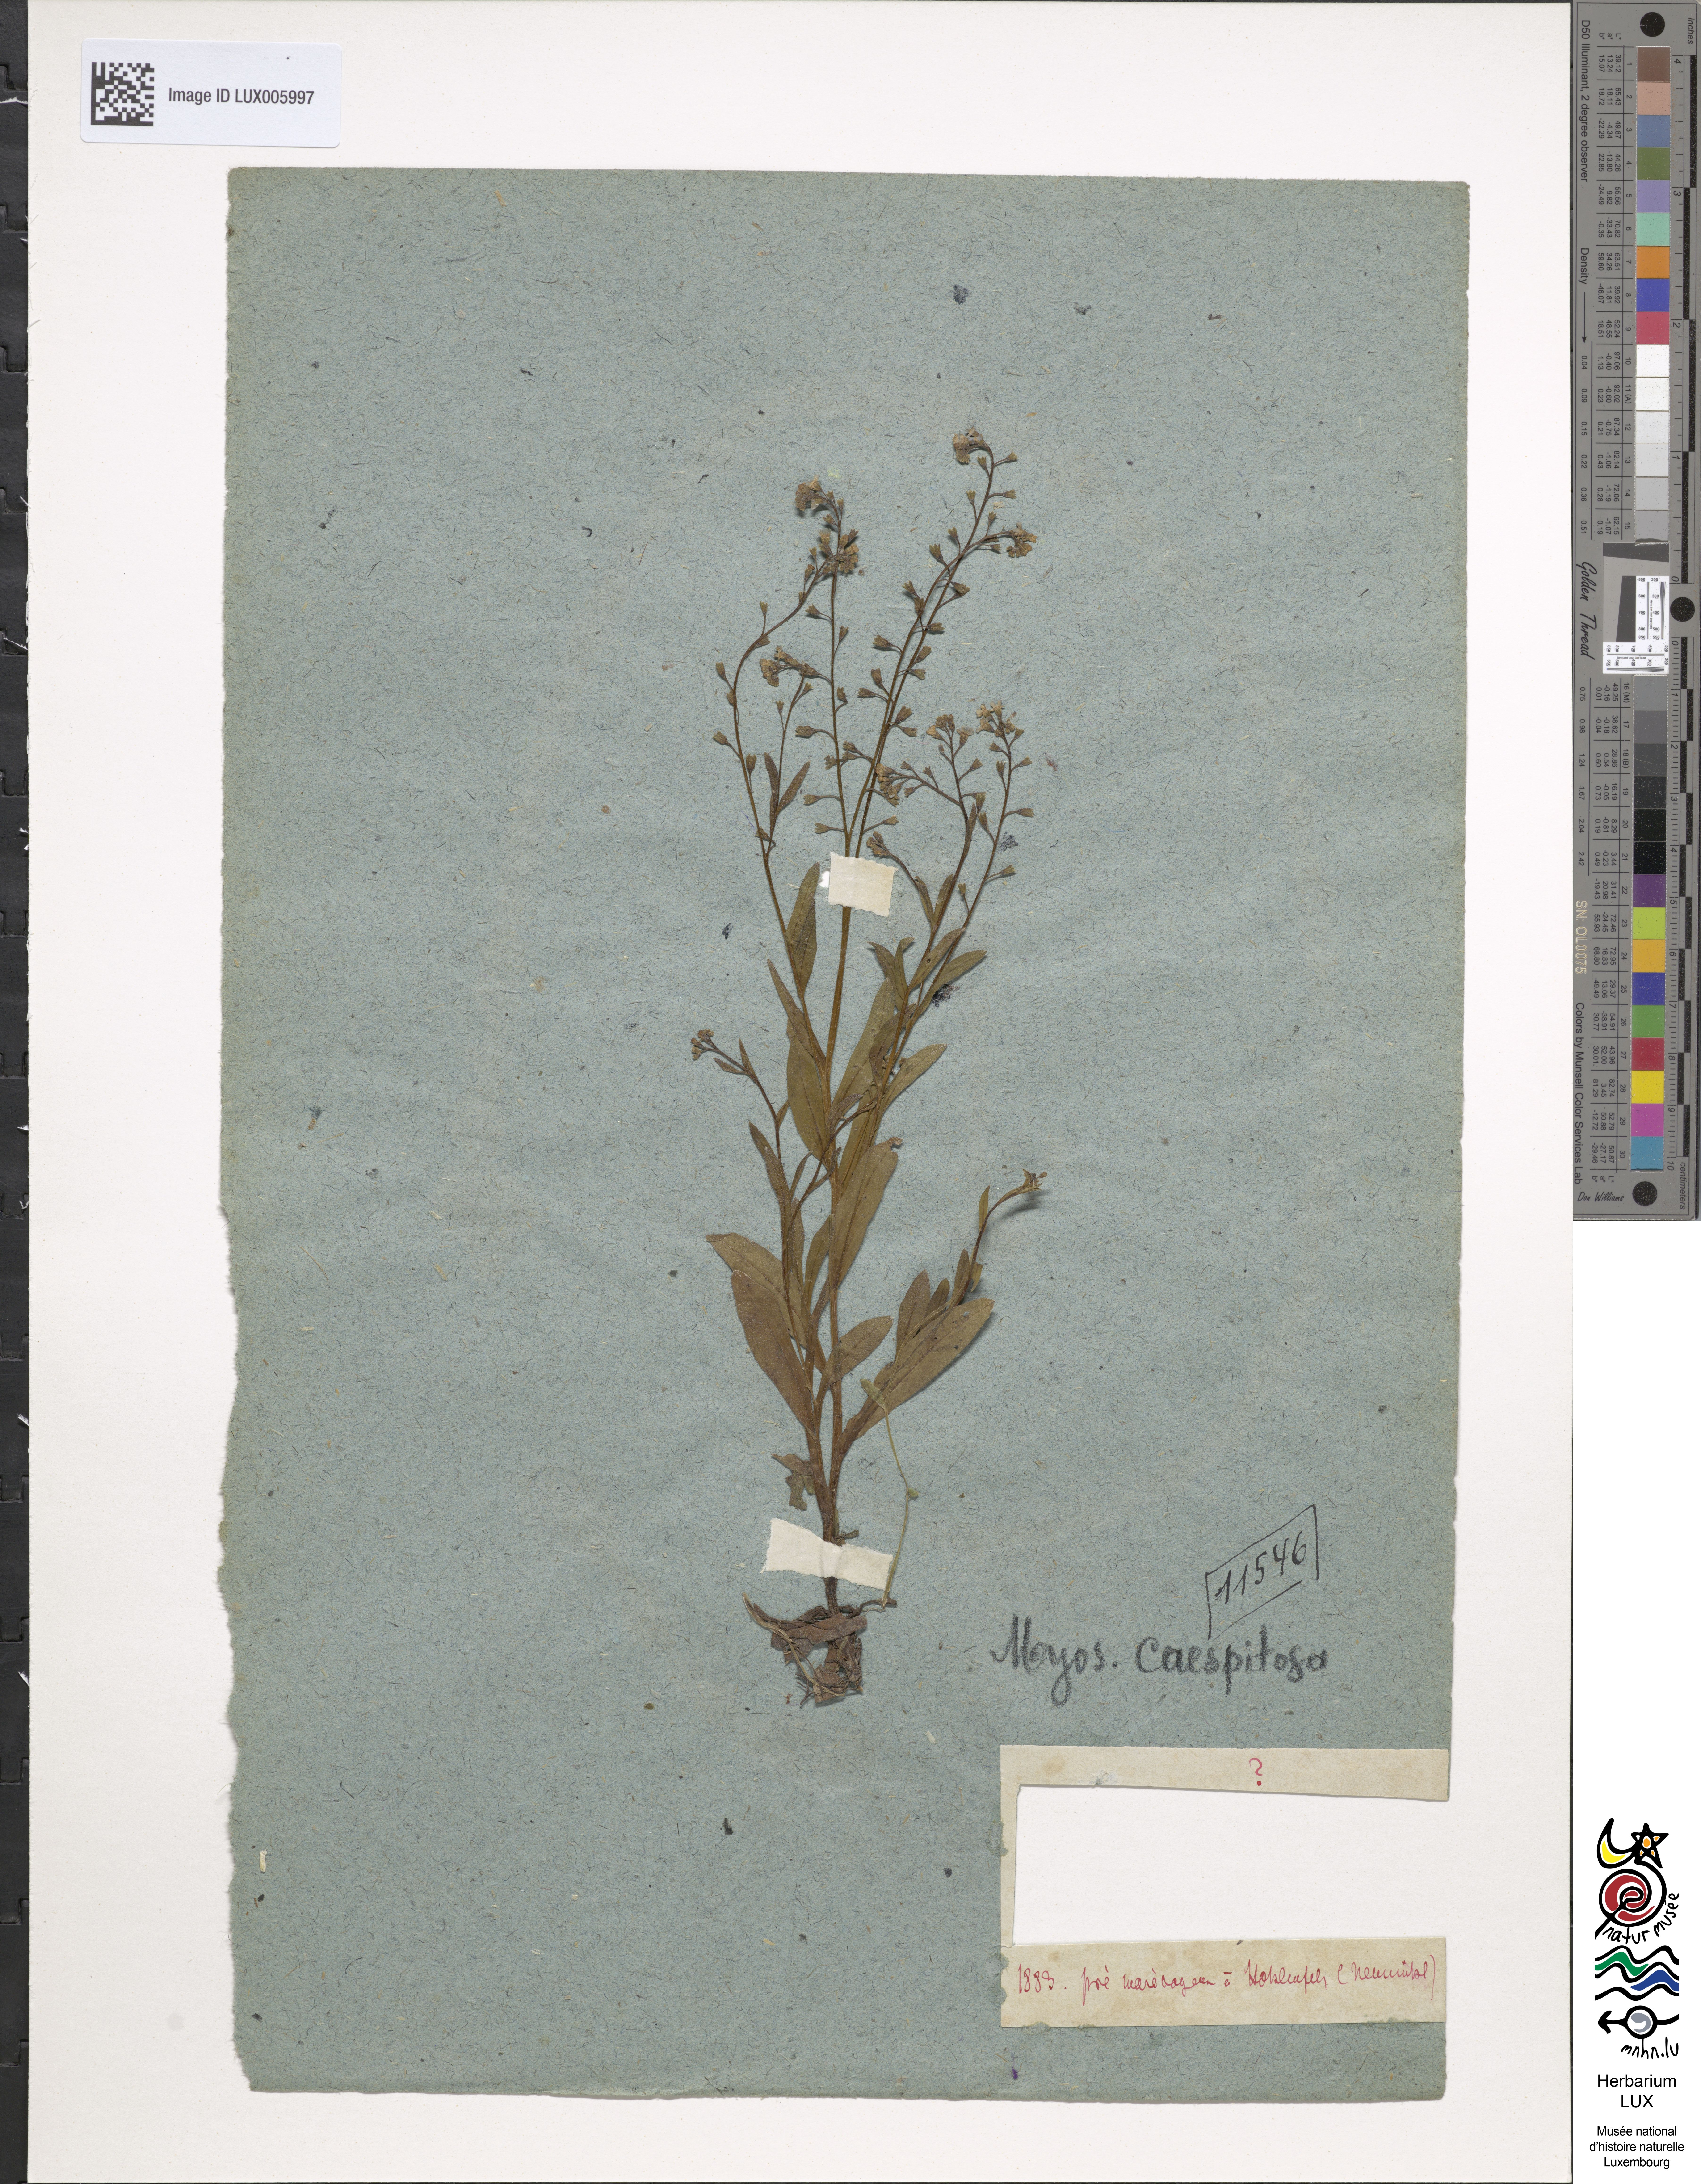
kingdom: Plantae
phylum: Tracheophyta
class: Magnoliopsida
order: Boraginales
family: Boraginaceae
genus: Myosotis
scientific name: Myosotis scorpioides
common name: Water forget-me-not
